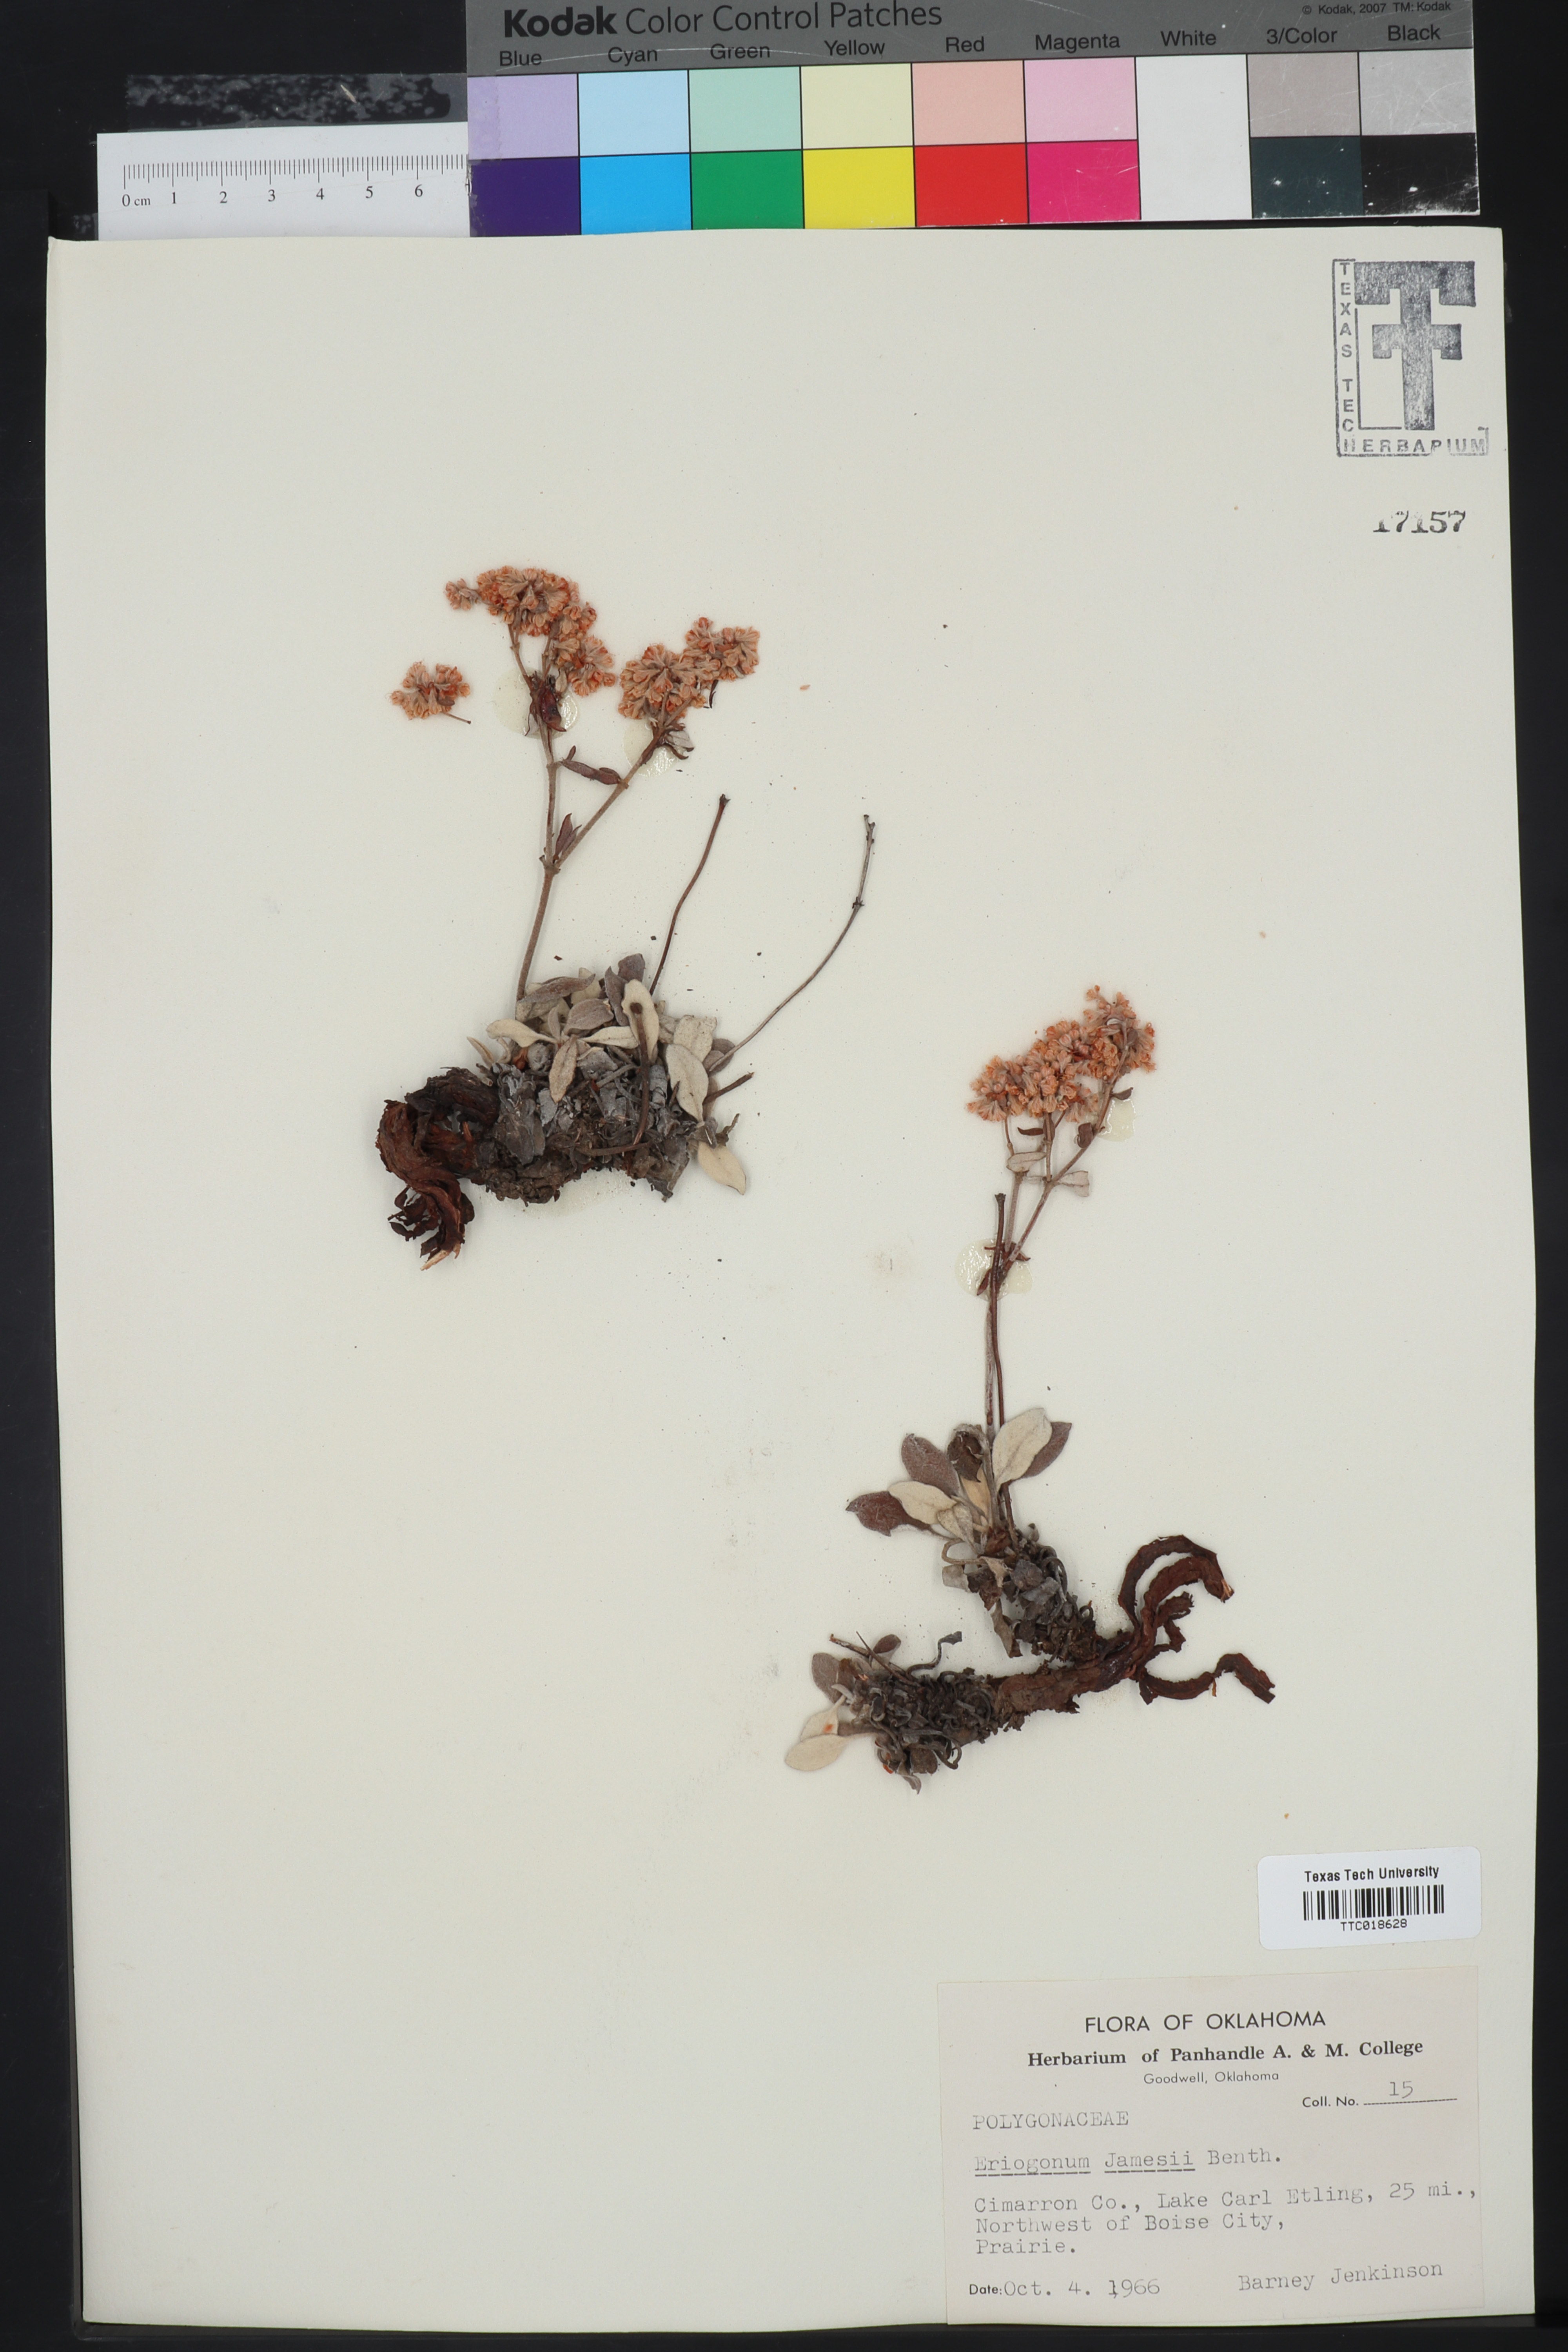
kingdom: Plantae
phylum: Tracheophyta
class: Magnoliopsida
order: Caryophyllales
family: Polygonaceae
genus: Eriogonum
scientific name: Eriogonum jamesii
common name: Antelope-sage
